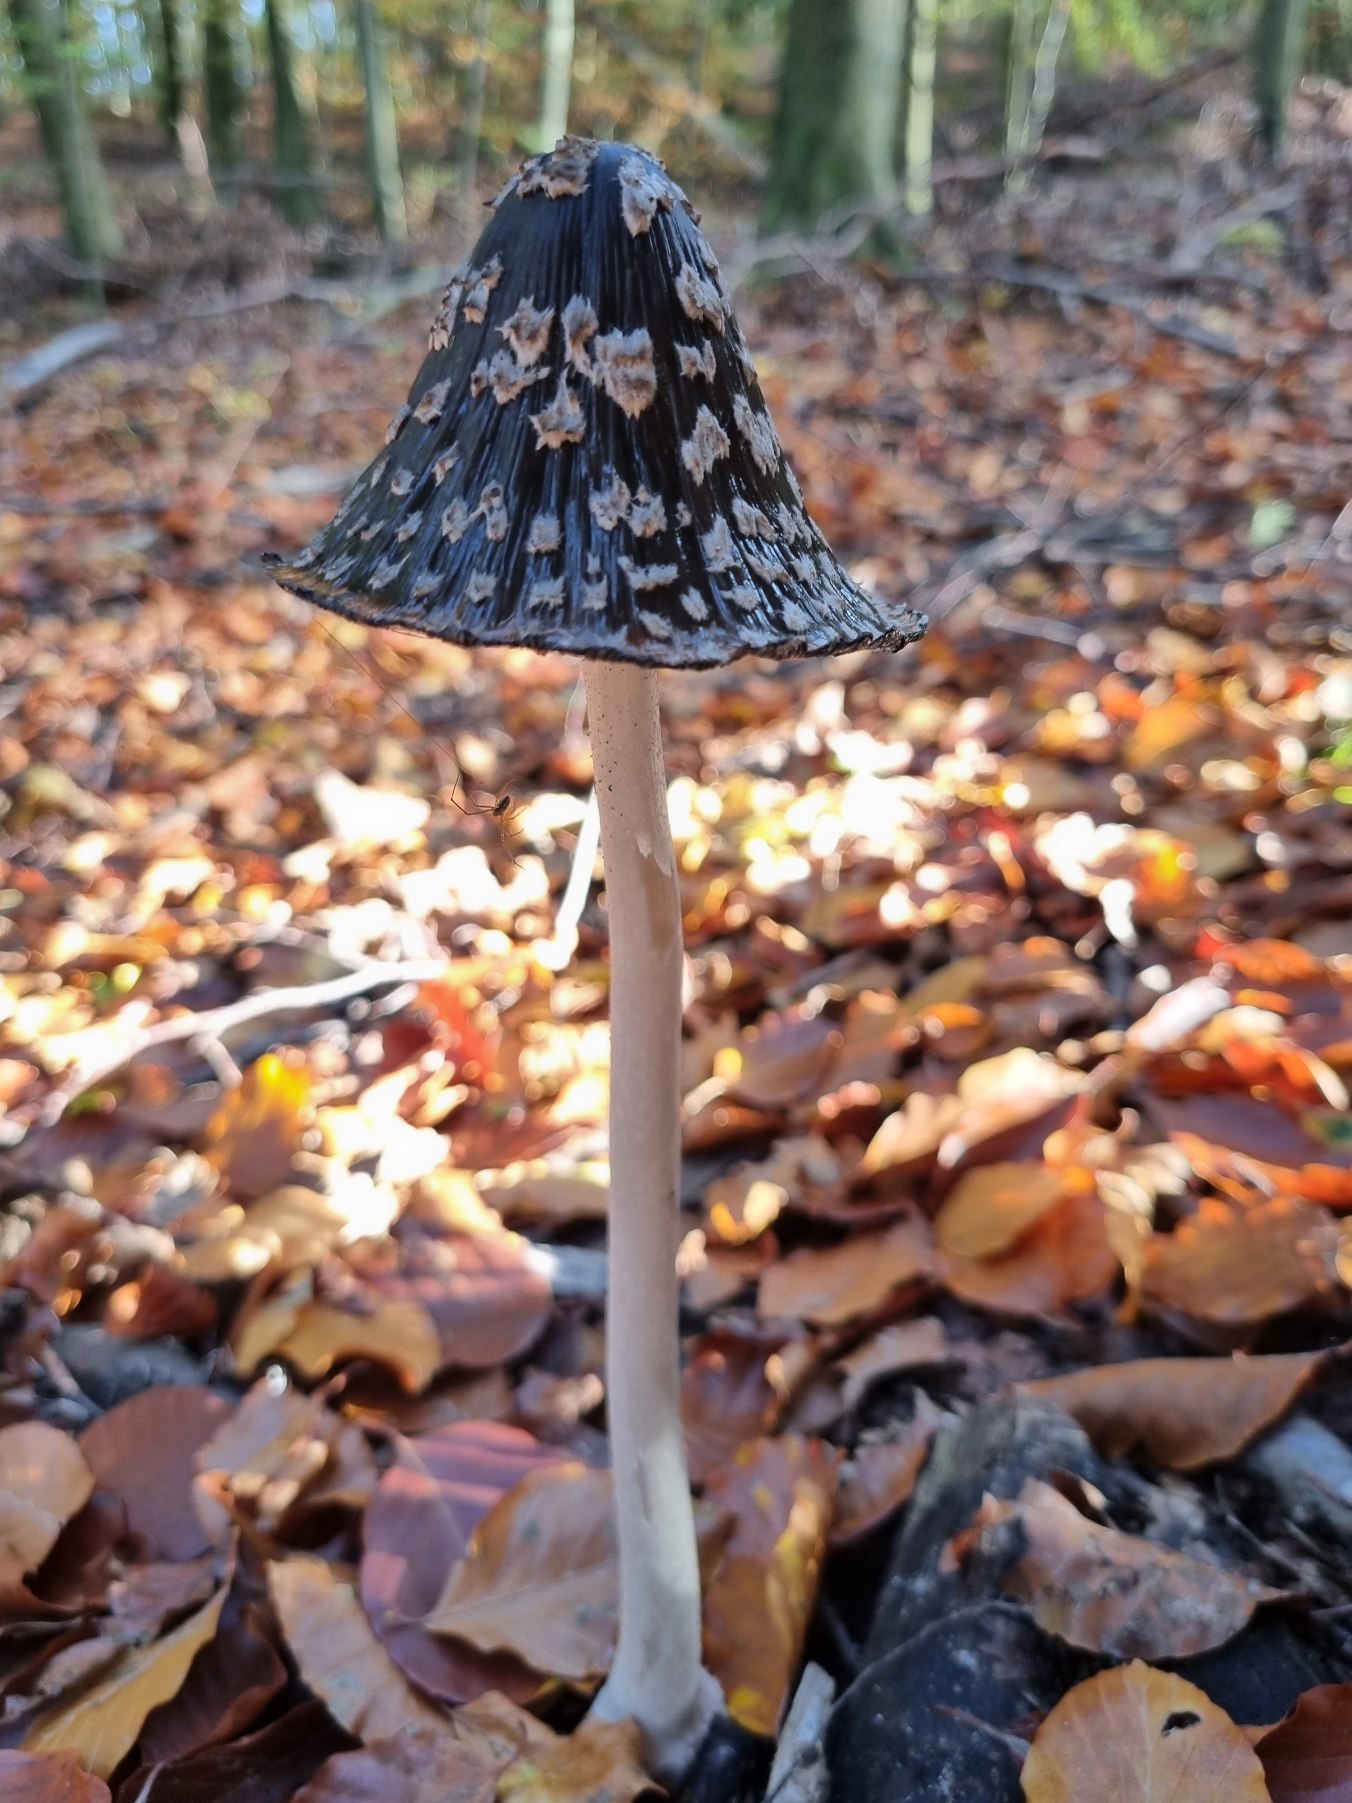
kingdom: Fungi
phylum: Basidiomycota
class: Agaricomycetes
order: Agaricales
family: Psathyrellaceae
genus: Coprinopsis
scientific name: Coprinopsis picacea
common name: Skade-blækhat
